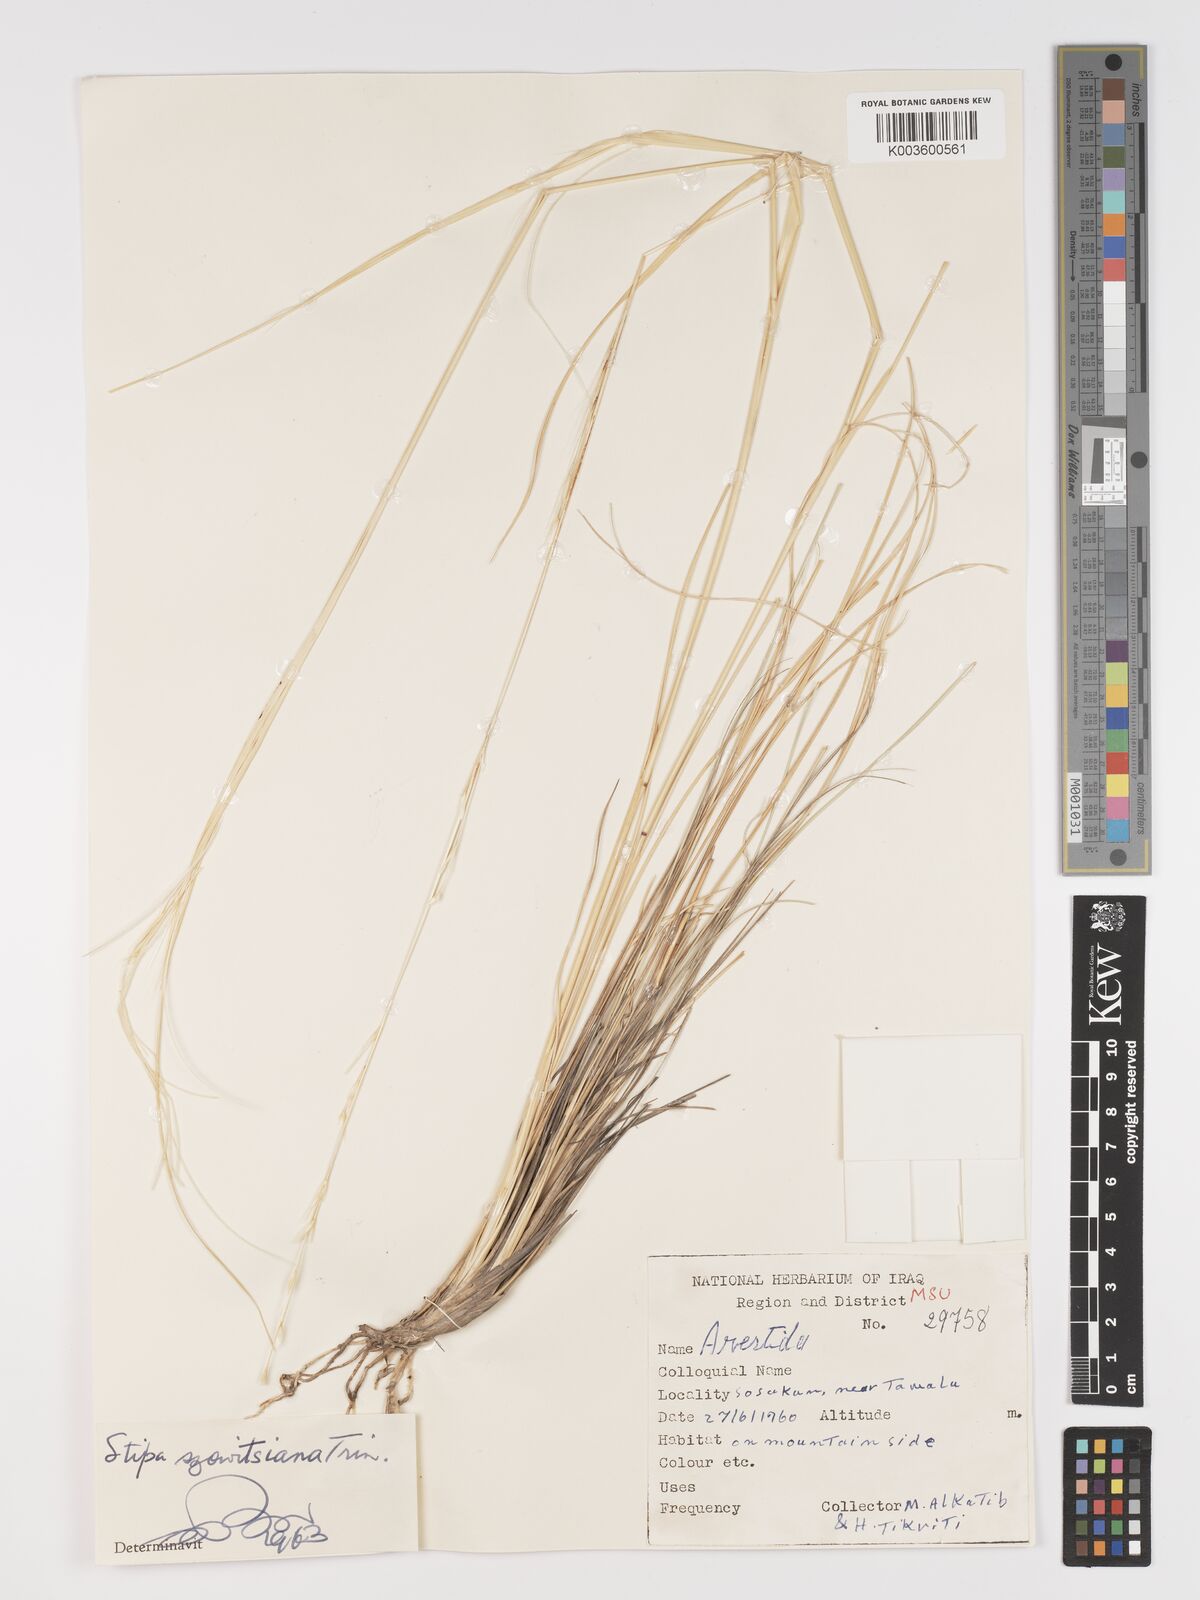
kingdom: Plantae
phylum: Tracheophyta
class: Liliopsida
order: Poales
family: Poaceae
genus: Stipa
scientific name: Stipa barbata
